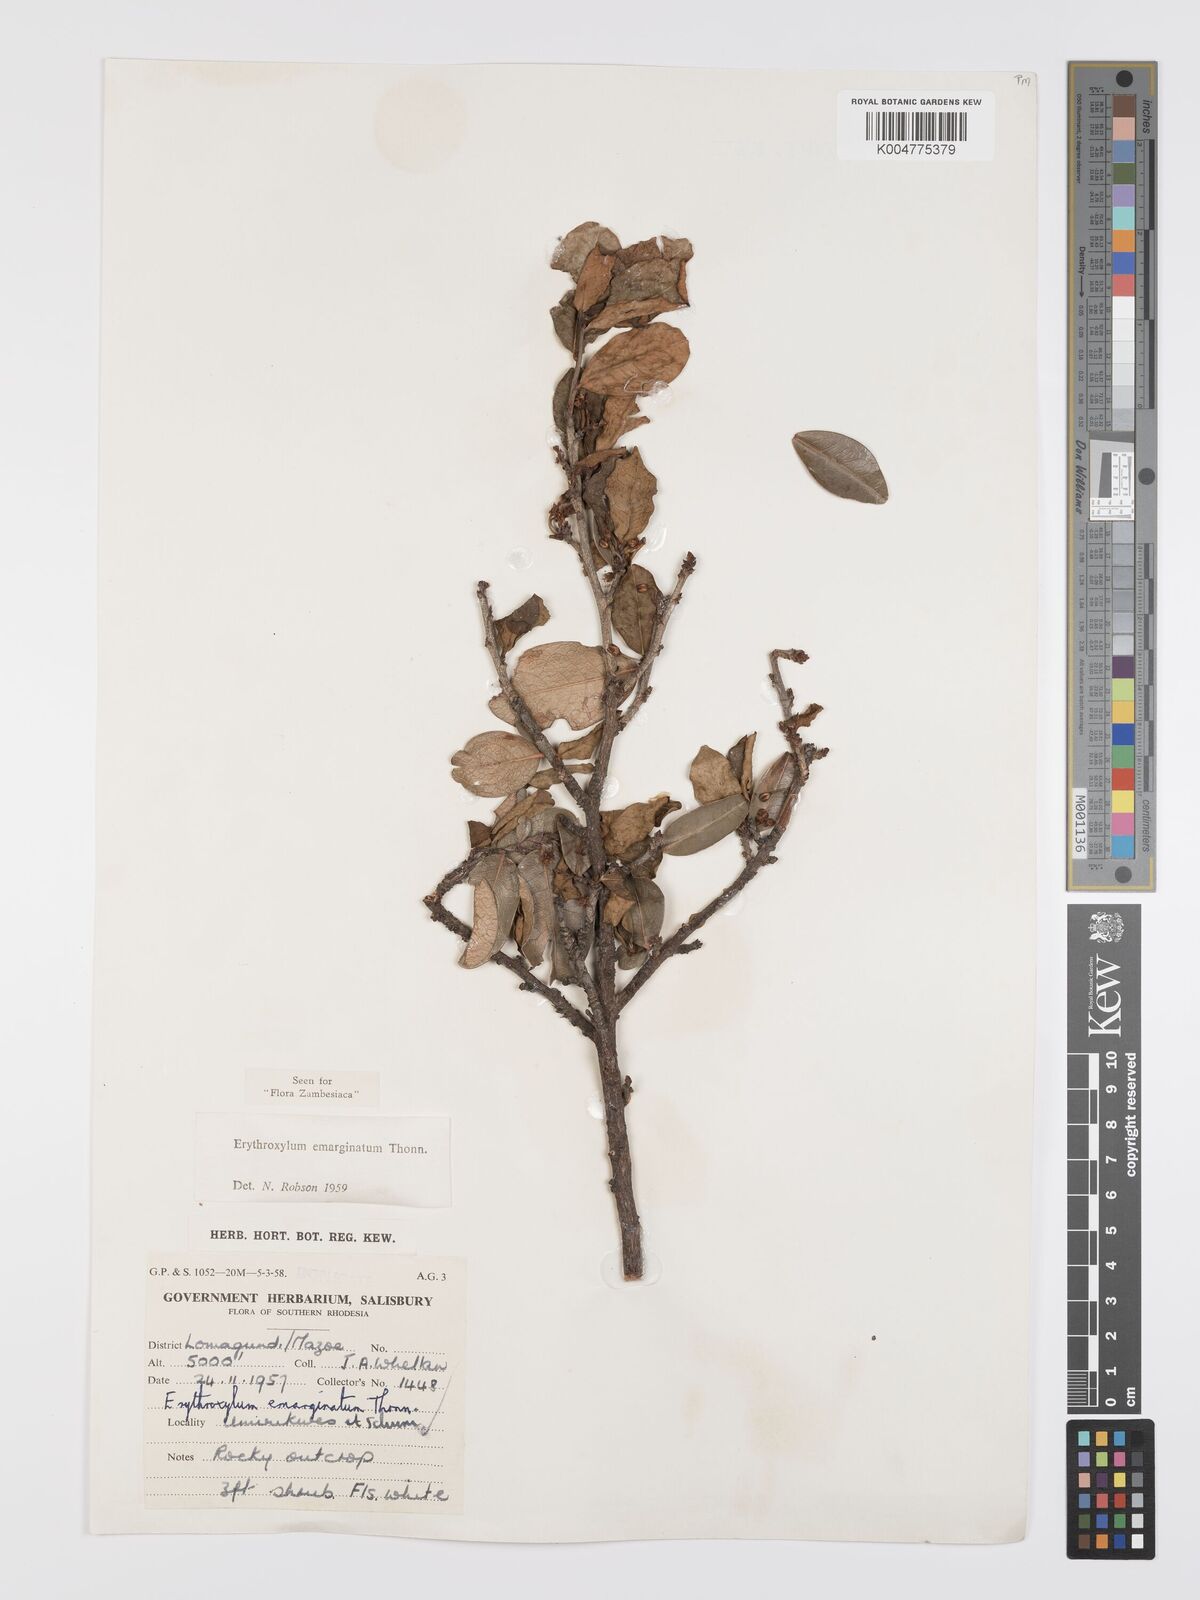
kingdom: Plantae
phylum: Tracheophyta
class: Magnoliopsida
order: Malpighiales
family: Erythroxylaceae
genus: Erythroxylum
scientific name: Erythroxylum emarginatum
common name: African coca-tree
